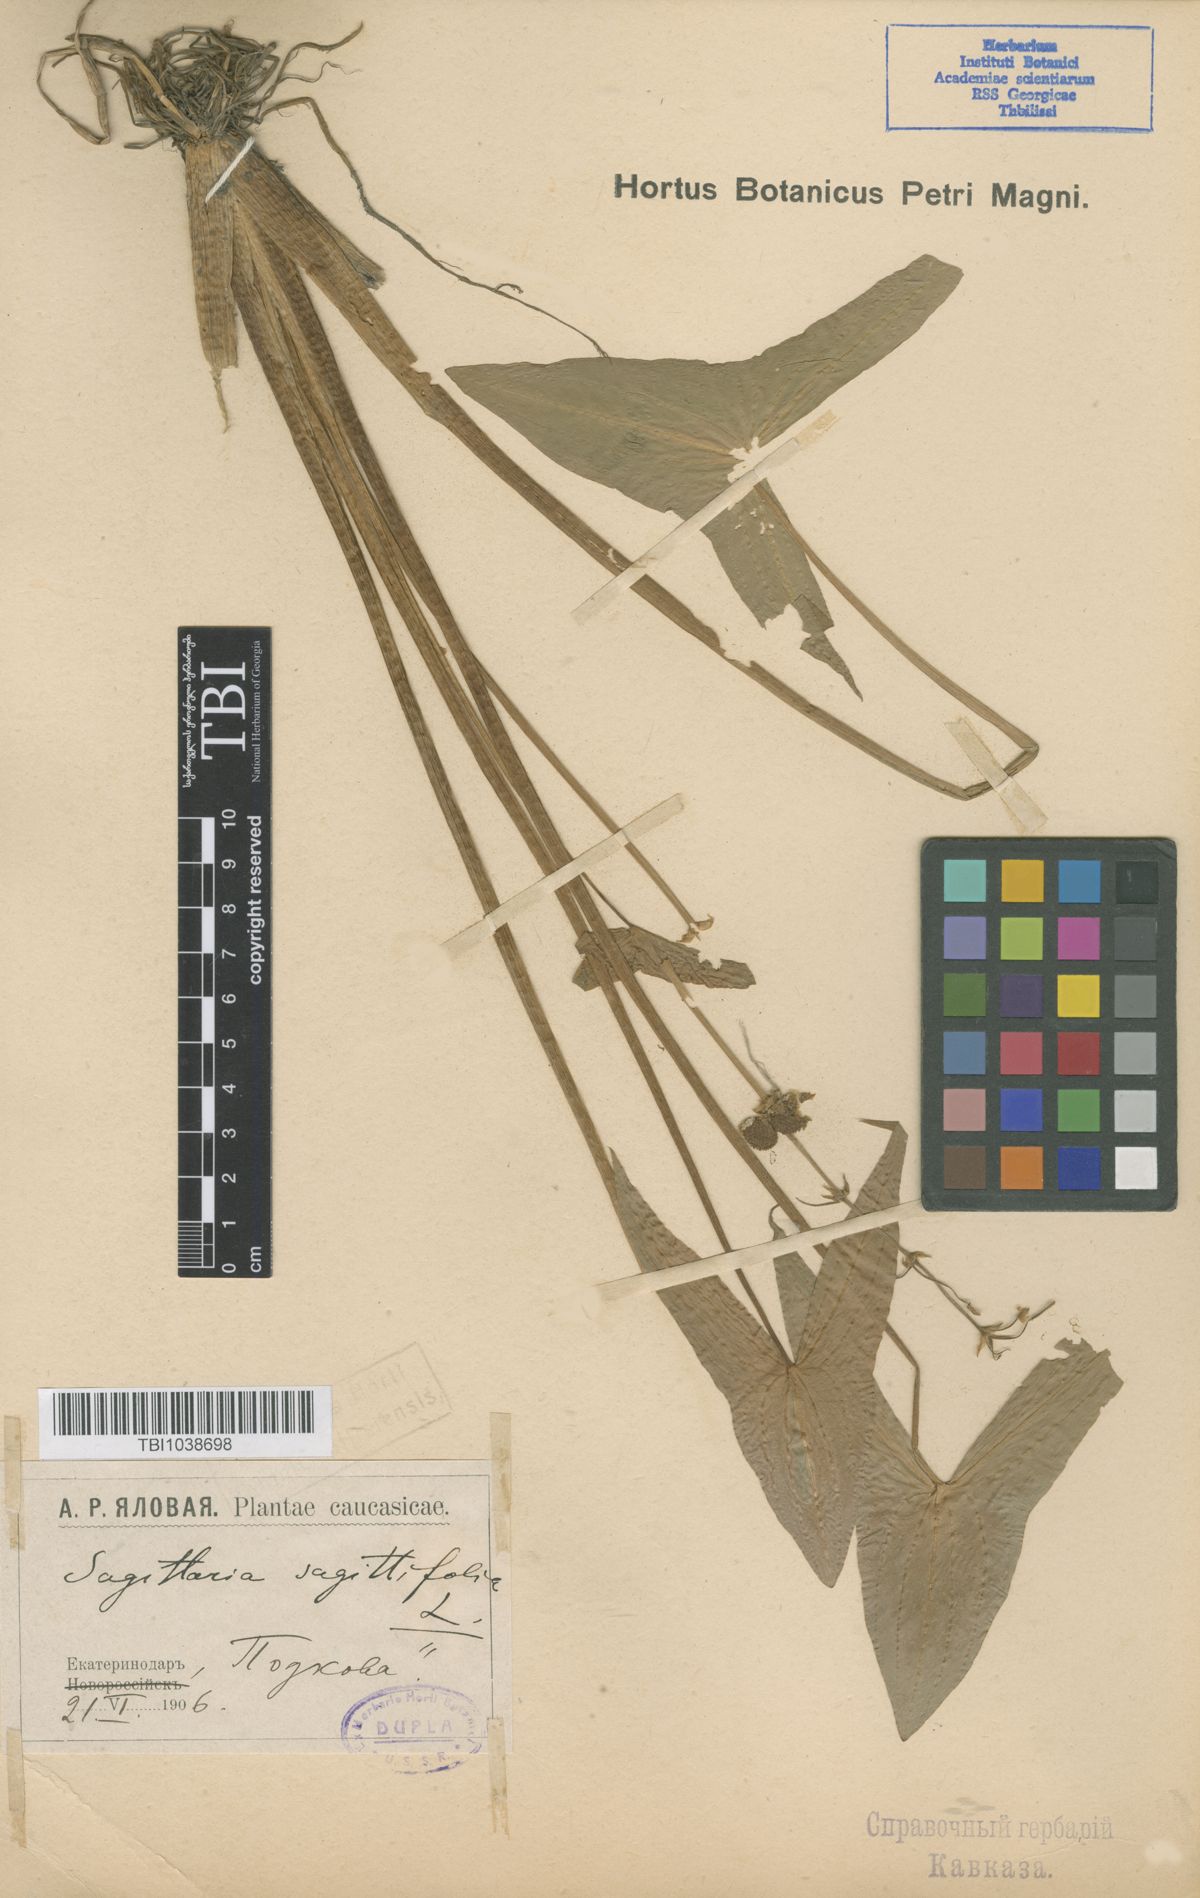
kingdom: Plantae
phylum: Tracheophyta
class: Liliopsida
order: Alismatales
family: Alismataceae
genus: Sagittaria
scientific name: Sagittaria sagittifolia
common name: Arrowhead
